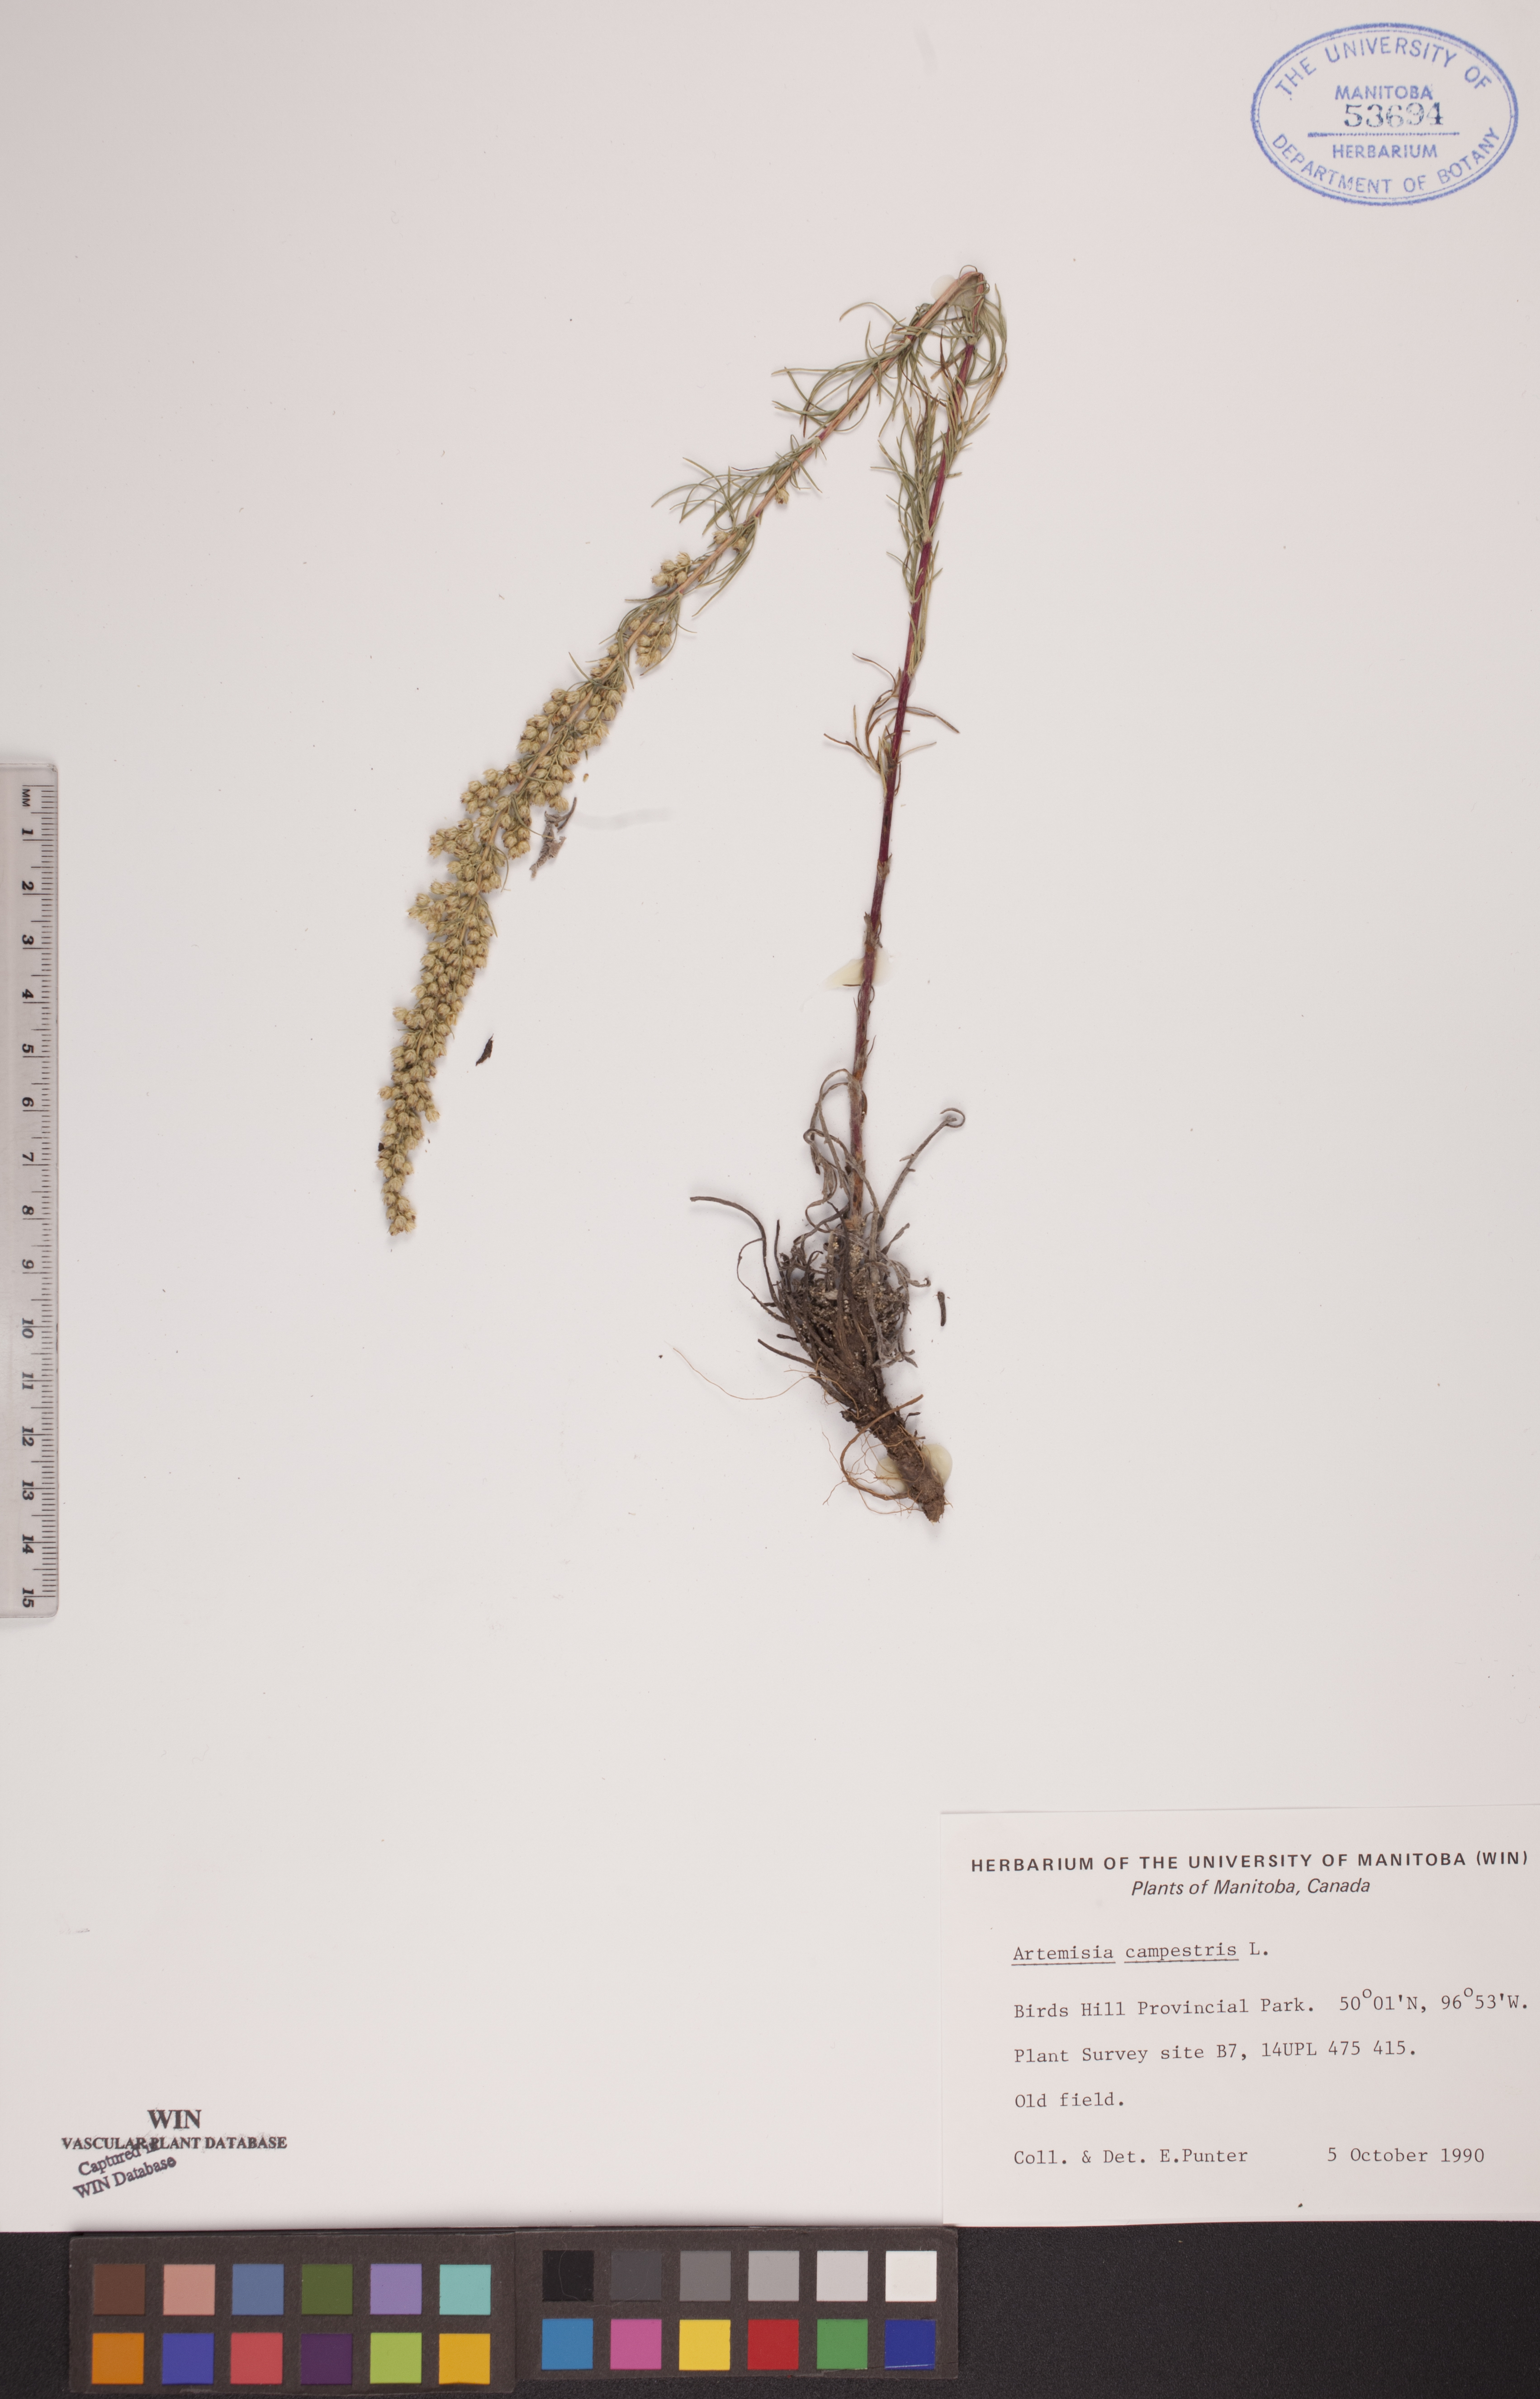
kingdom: Plantae
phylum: Tracheophyta
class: Magnoliopsida
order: Asterales
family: Asteraceae
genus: Artemisia
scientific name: Artemisia campestris
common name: Field wormwood
